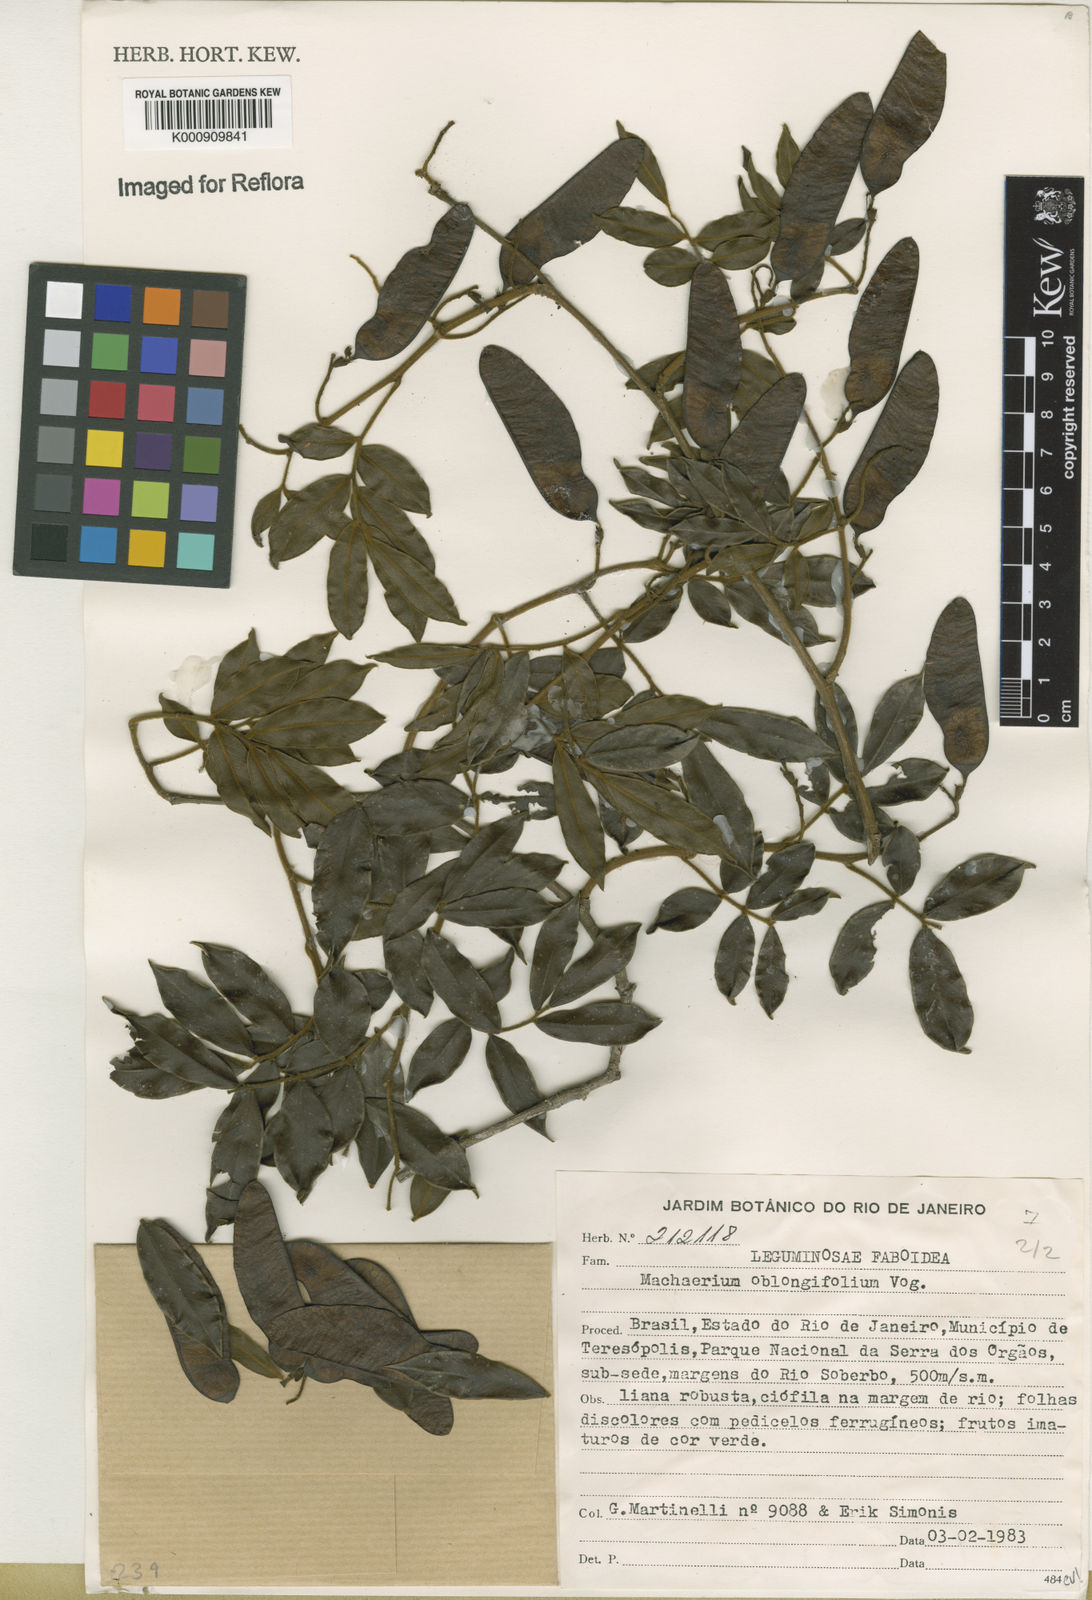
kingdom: Plantae
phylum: Tracheophyta
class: Magnoliopsida
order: Fabales
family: Fabaceae
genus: Machaerium
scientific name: Machaerium oblongifolium
